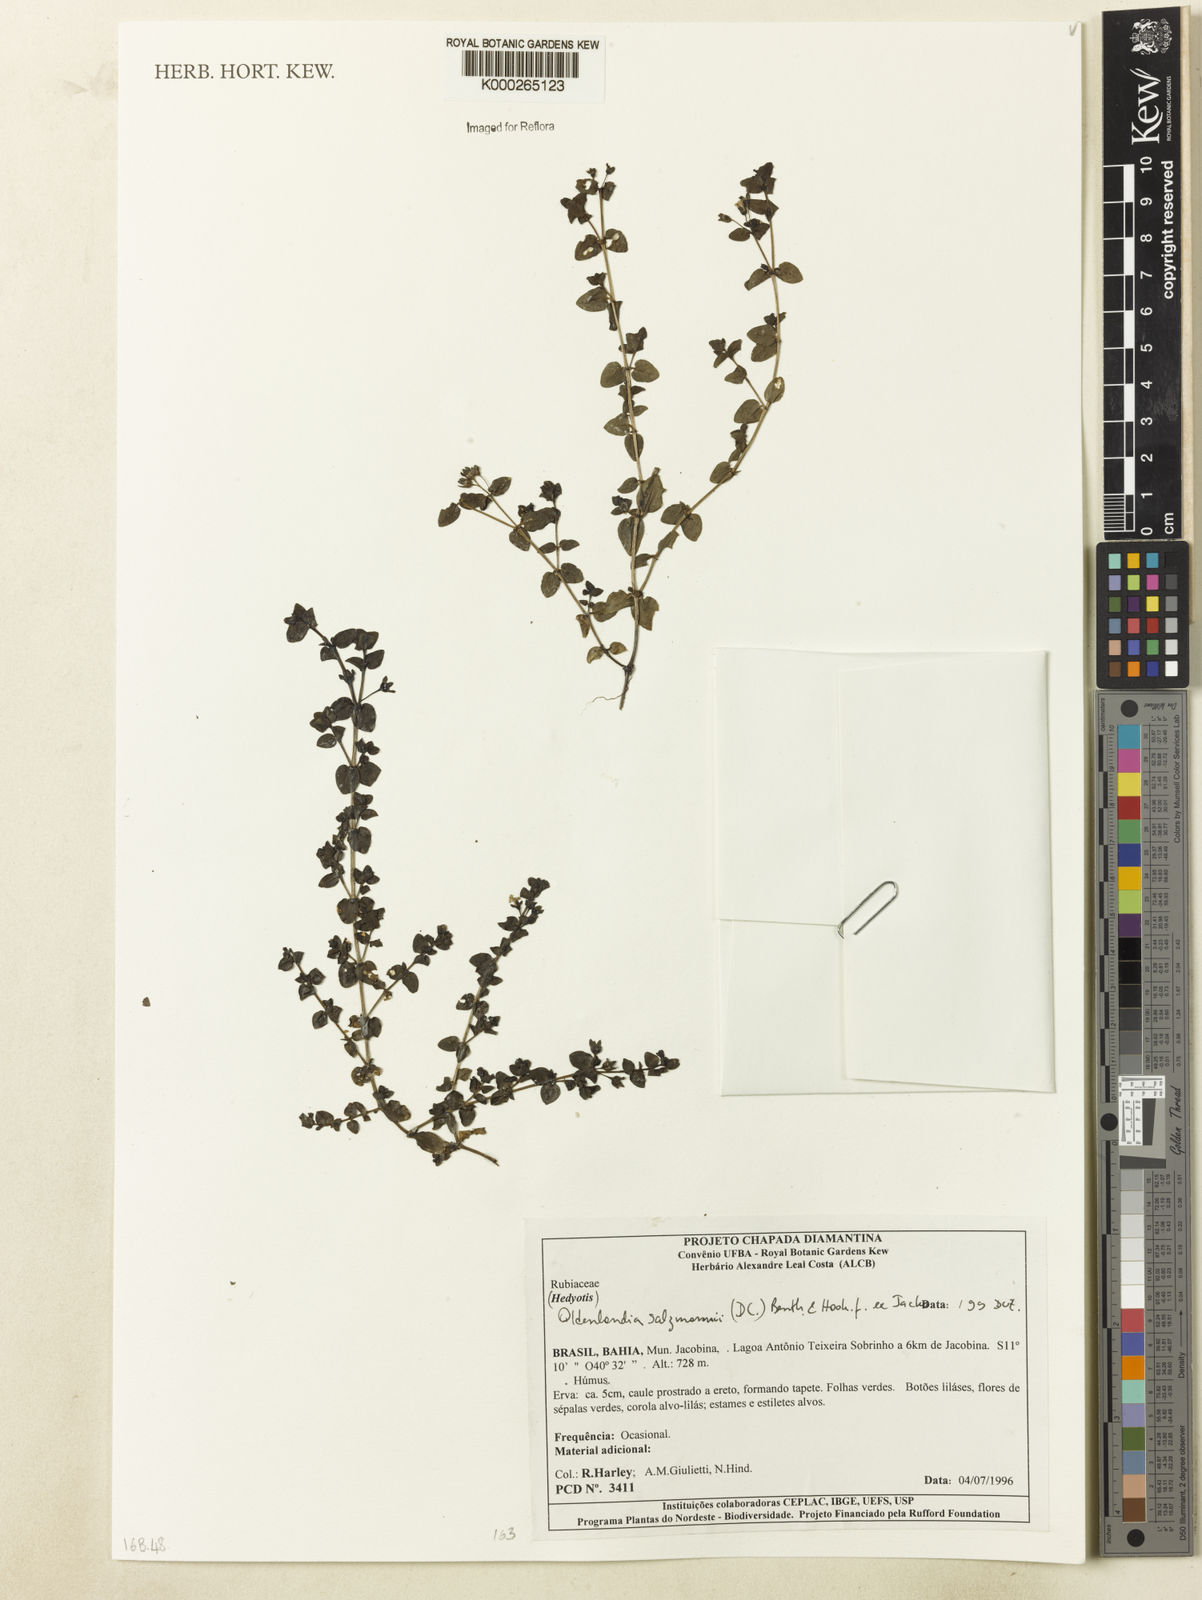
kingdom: Plantae
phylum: Tracheophyta
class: Magnoliopsida
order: Gentianales
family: Rubiaceae
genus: Oldenlandia
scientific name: Oldenlandia salzmannii
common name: Salzmann's mille graines
